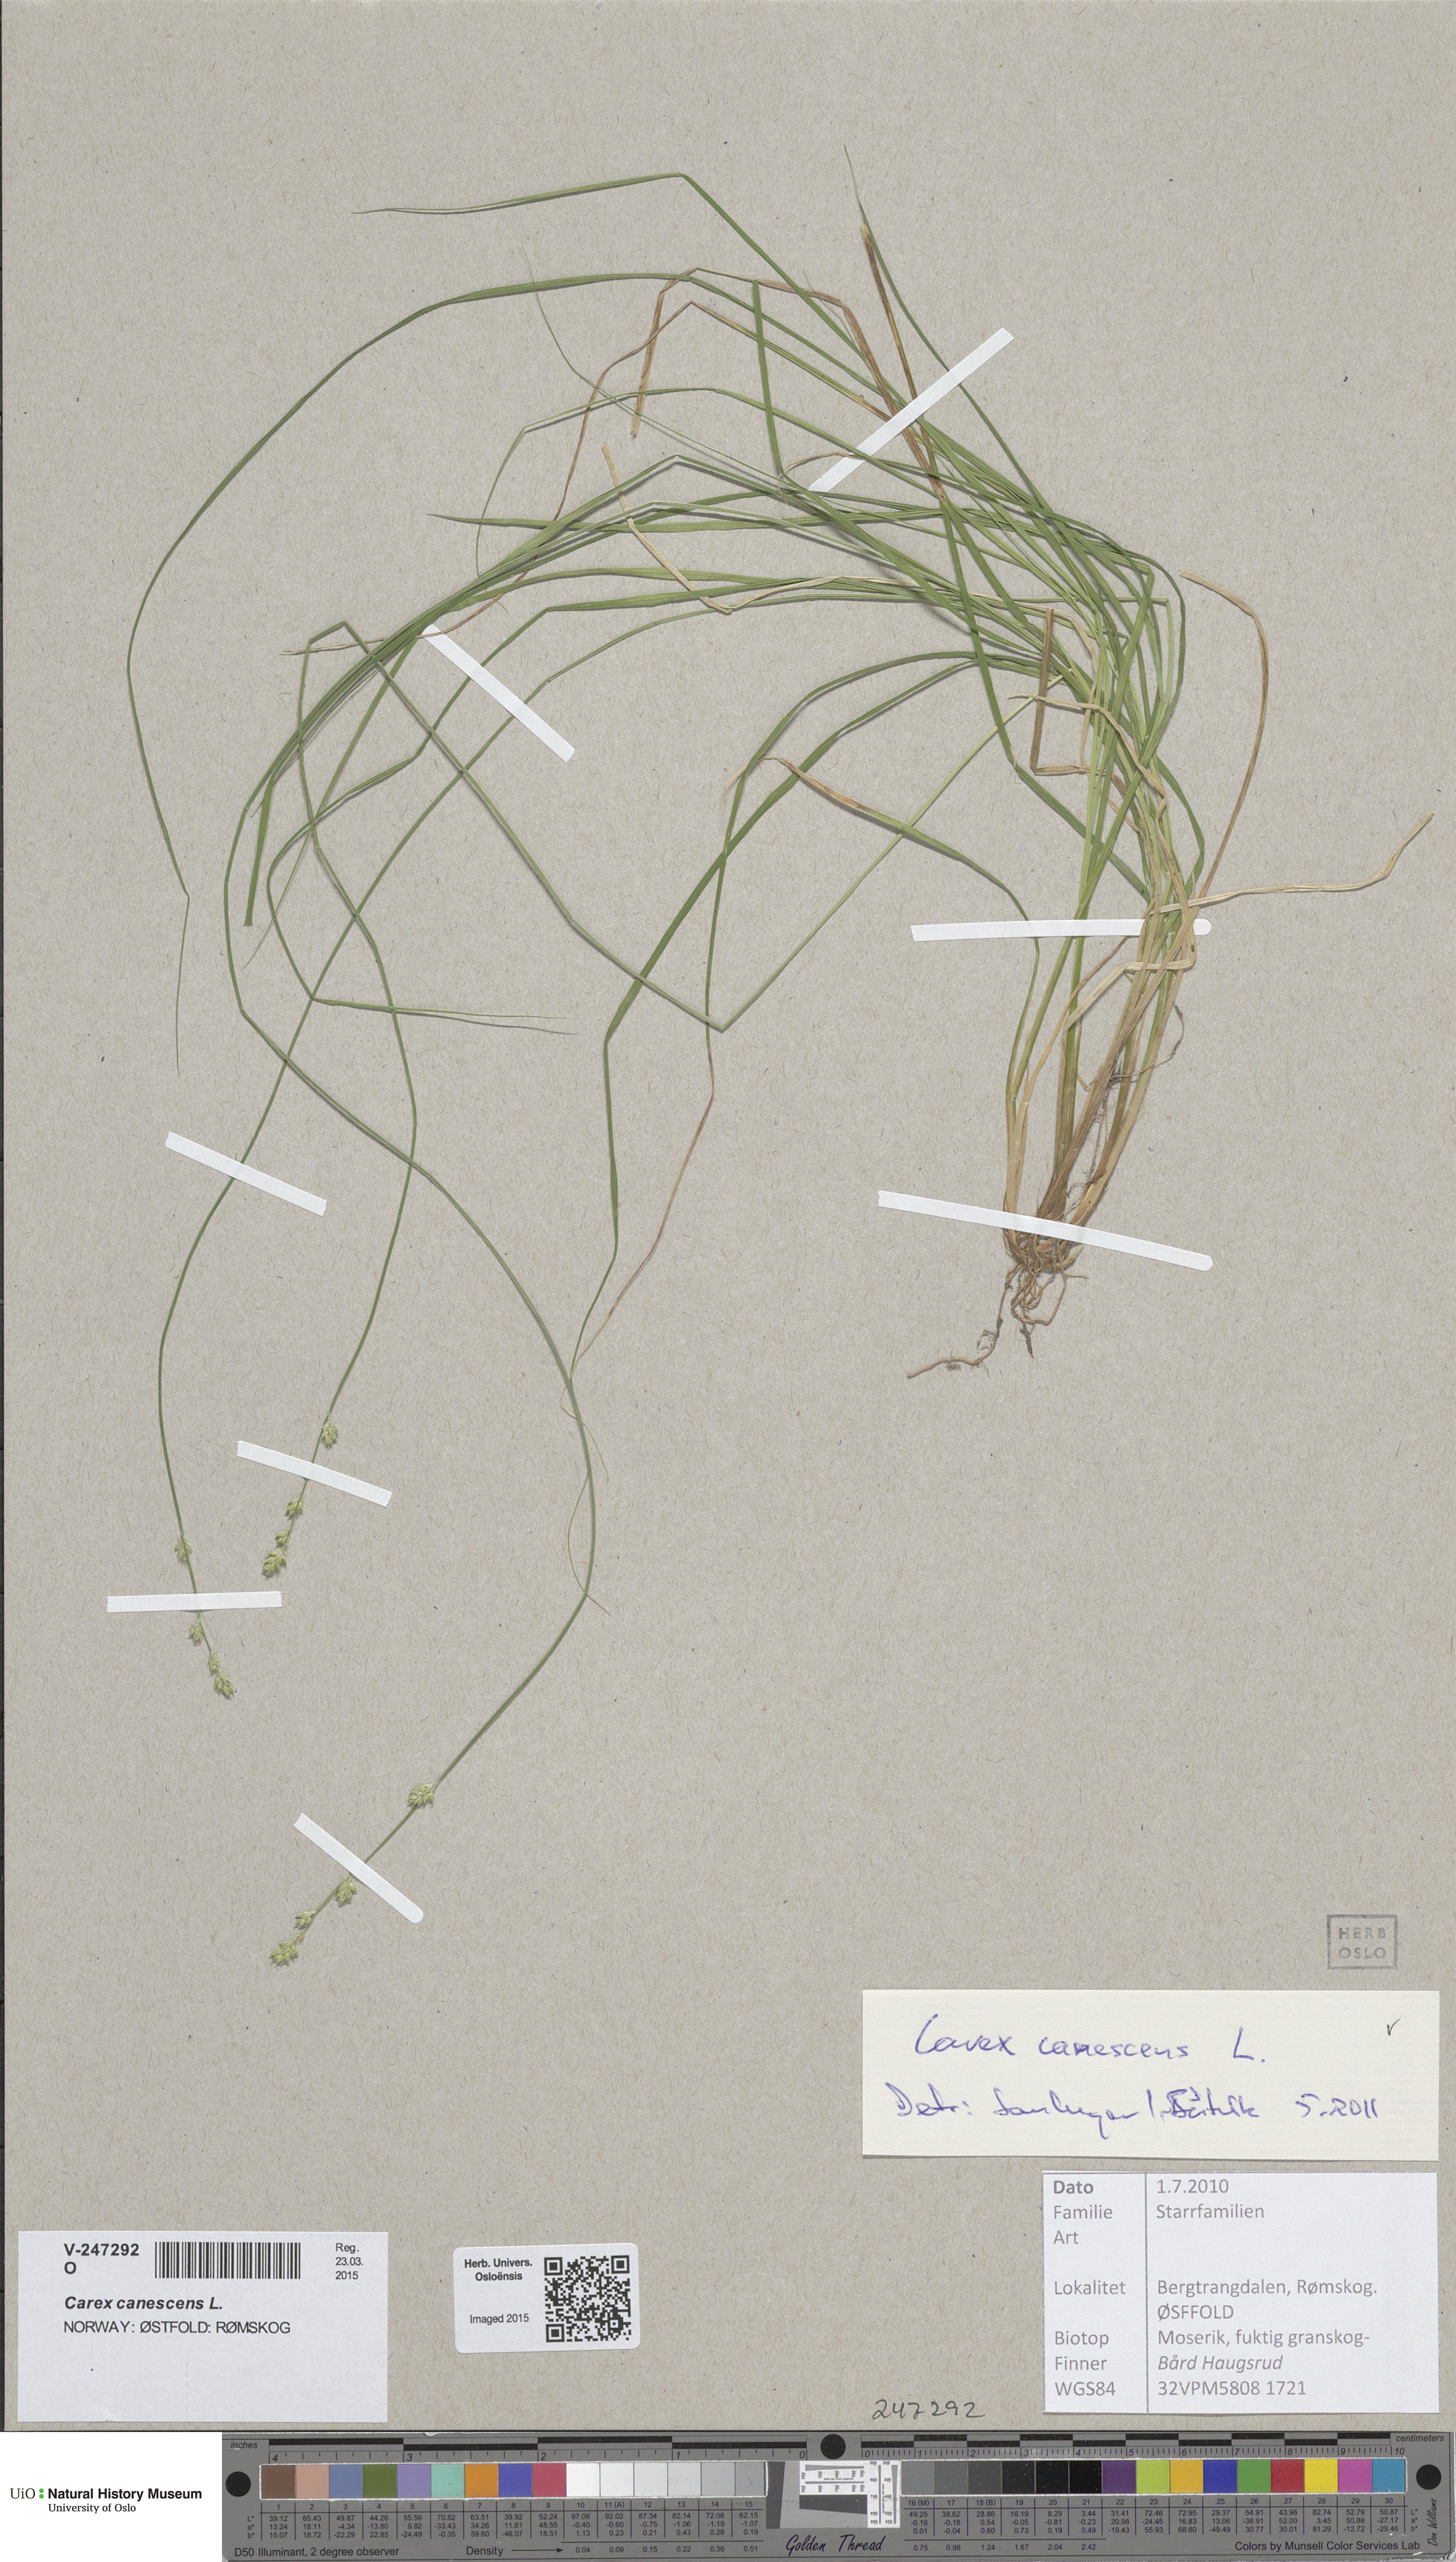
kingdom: Plantae
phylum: Tracheophyta
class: Liliopsida
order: Poales
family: Cyperaceae
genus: Carex
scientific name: Carex canescens
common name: White sedge
